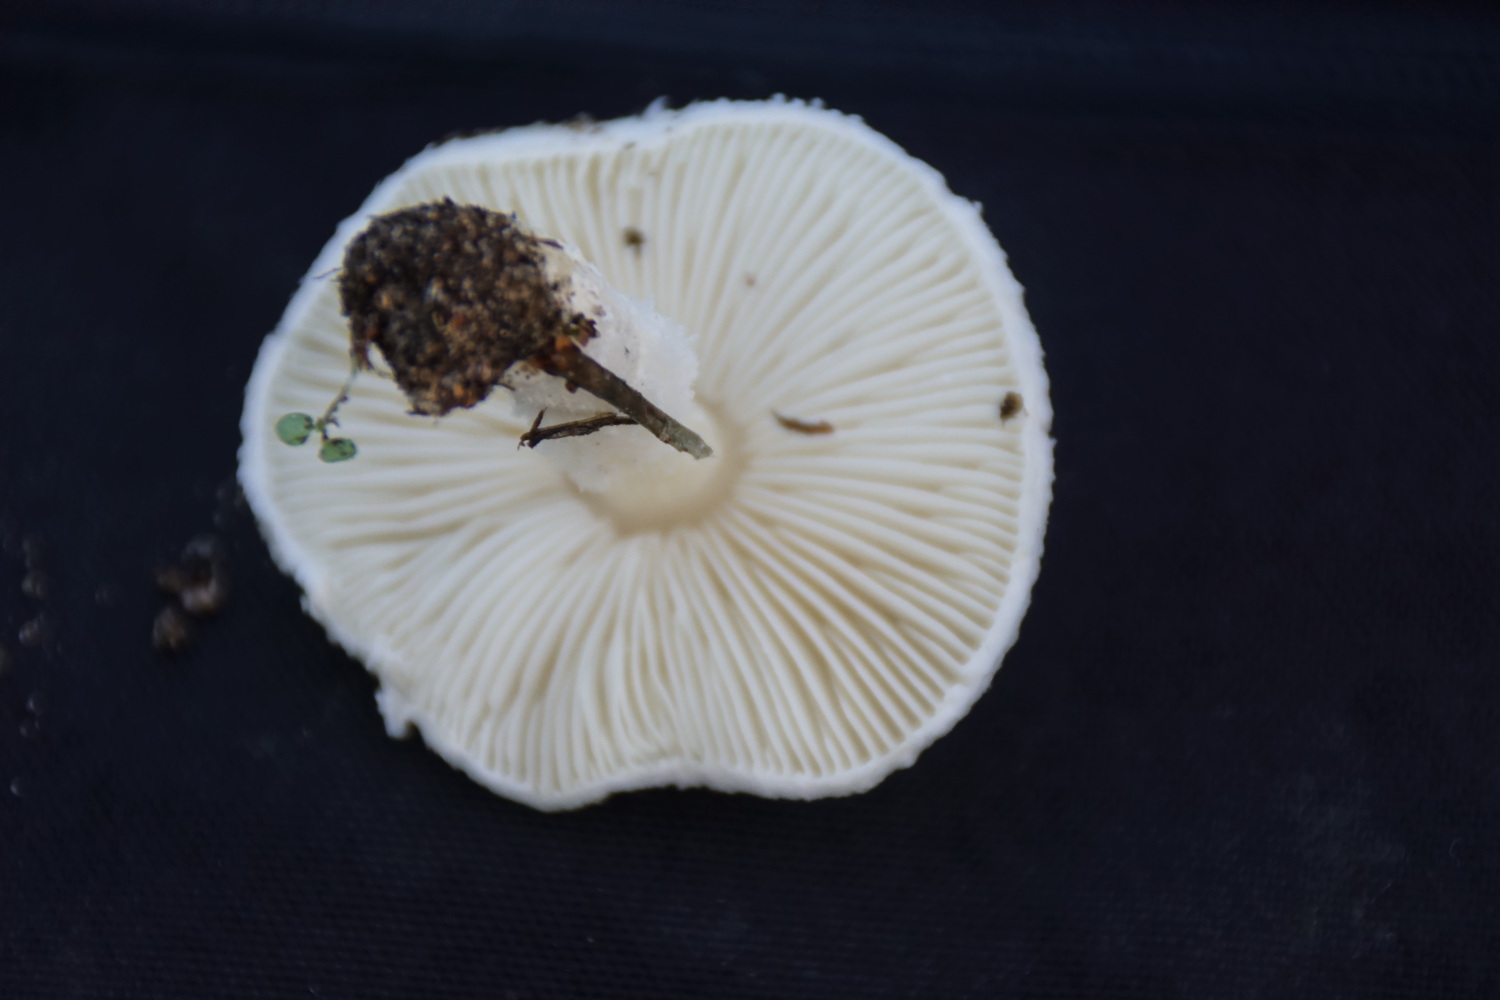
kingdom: Fungi
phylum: Basidiomycota
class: Agaricomycetes
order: Agaricales
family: Agaricaceae
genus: Lepiota
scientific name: Lepiota erminea
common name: hvid parasolhat
